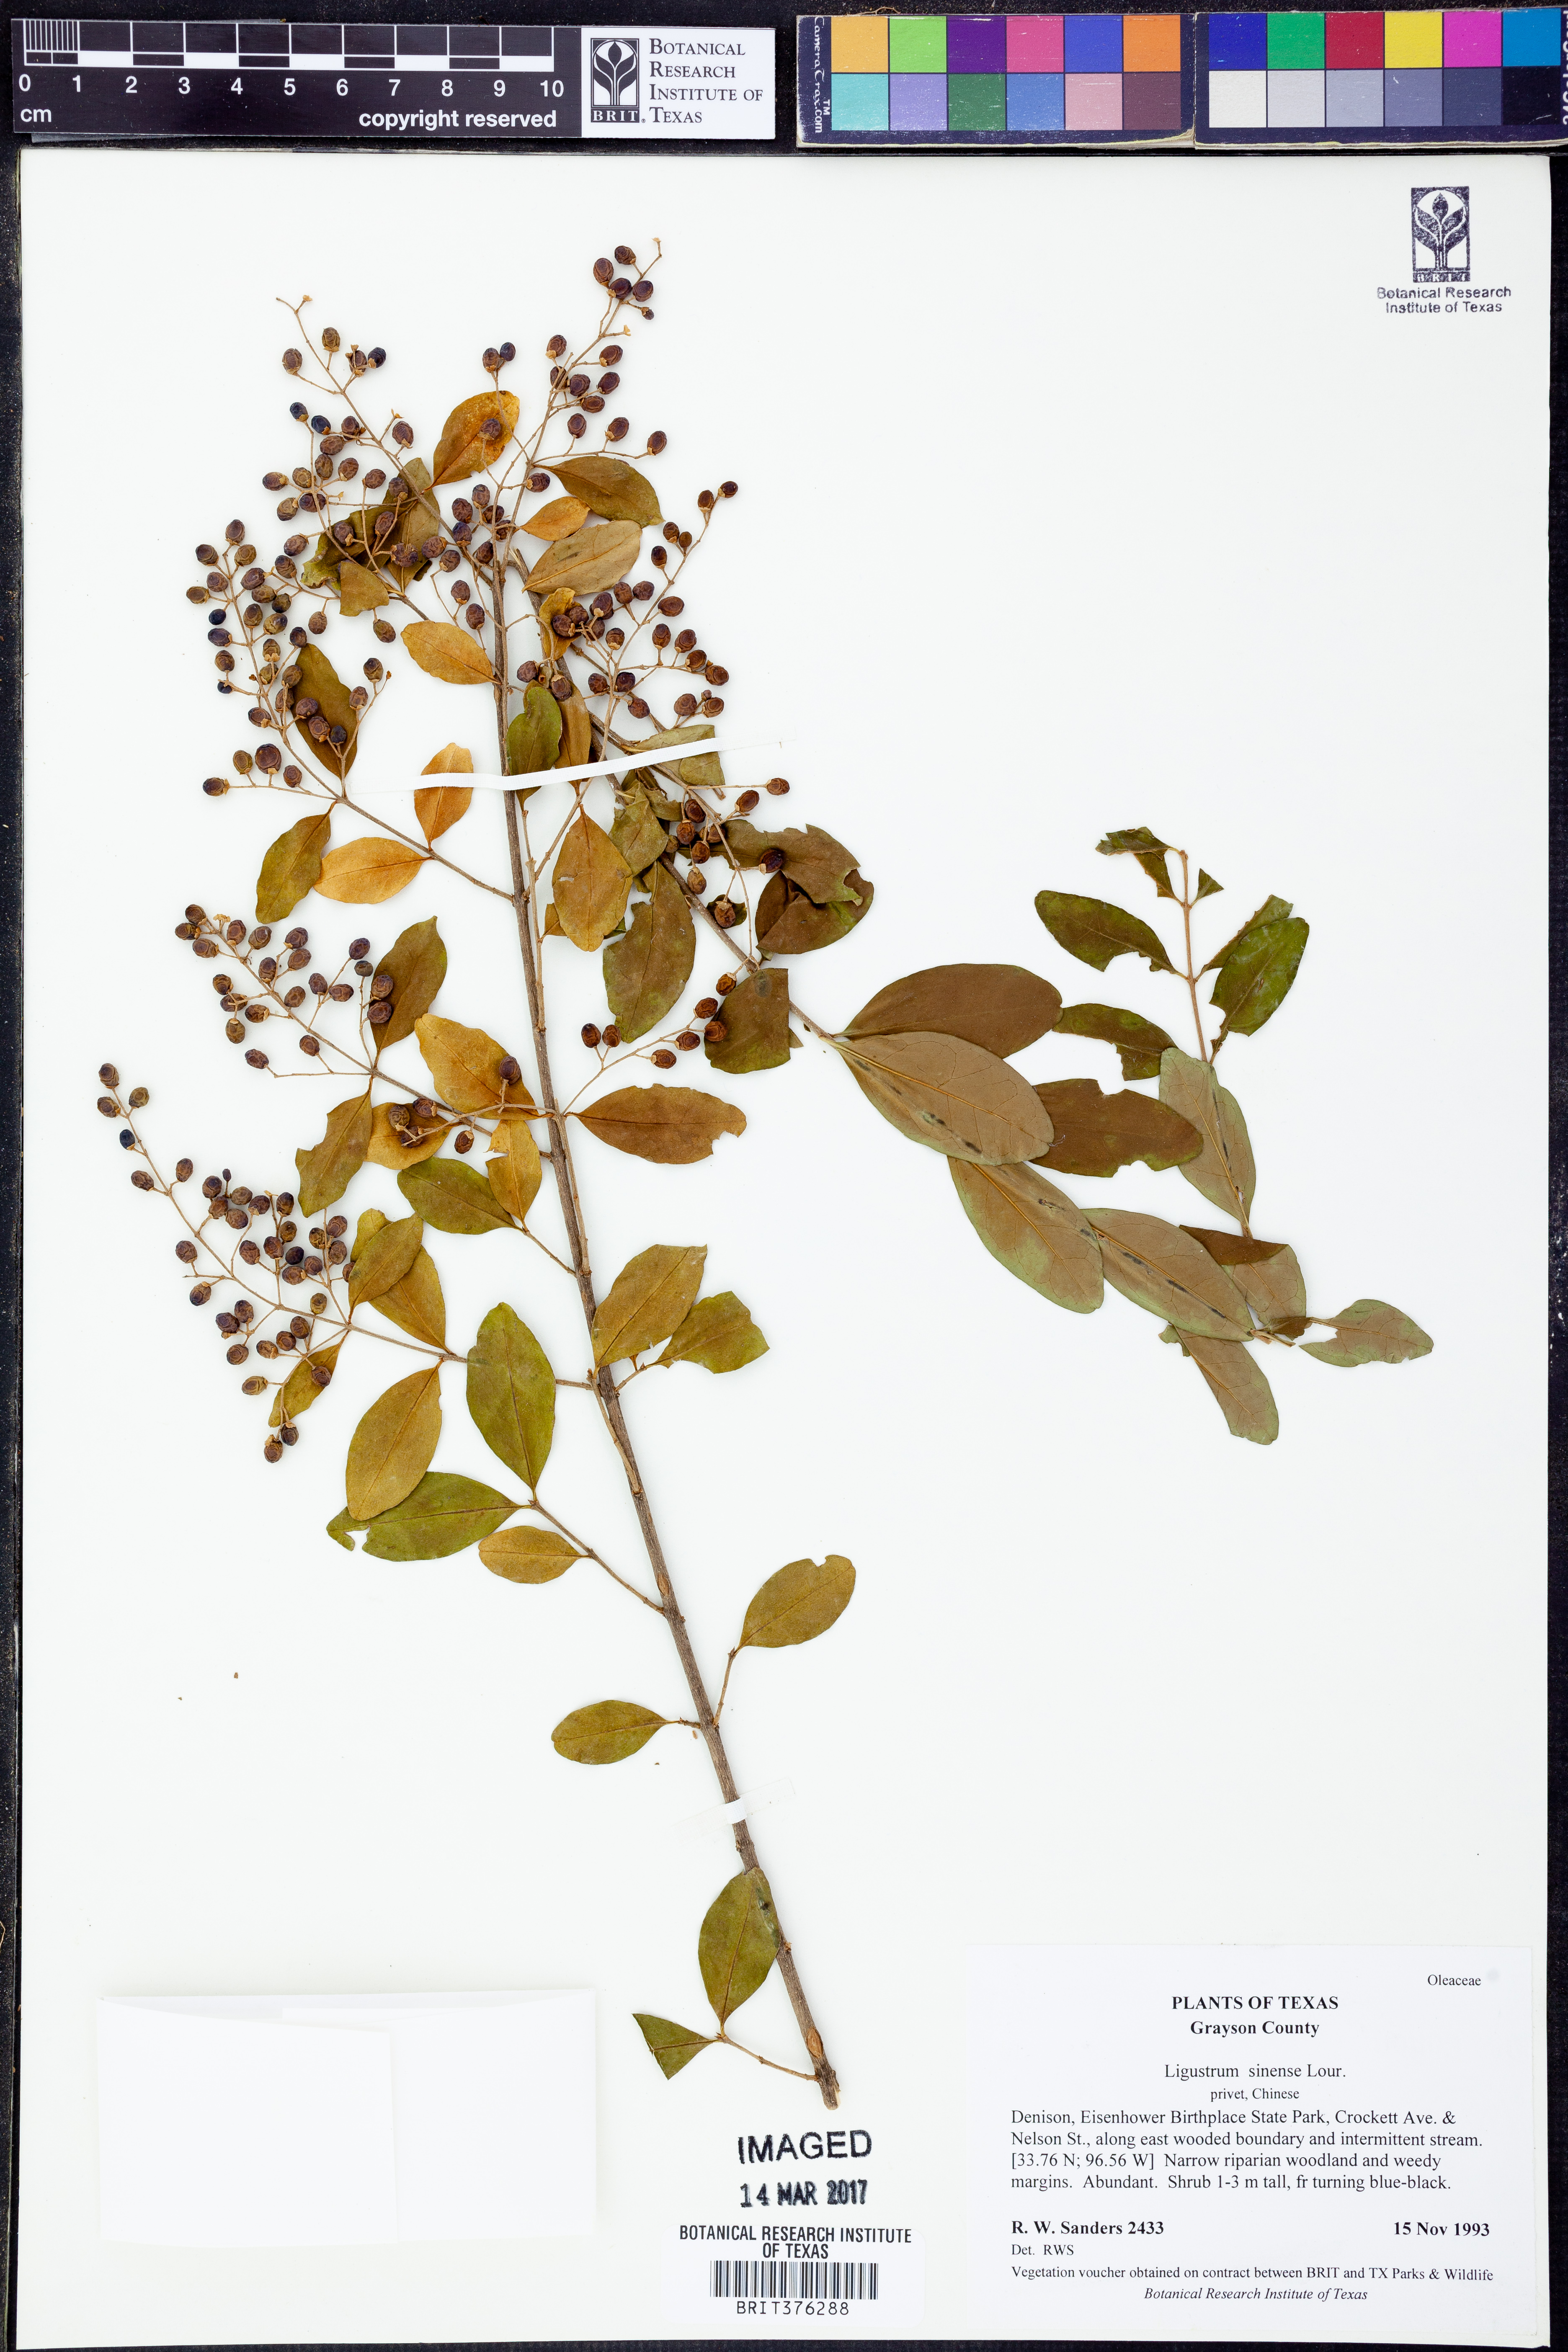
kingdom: Plantae
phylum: Tracheophyta
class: Magnoliopsida
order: Lamiales
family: Oleaceae
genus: Ligustrum
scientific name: Ligustrum sinense
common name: Chinese privet
